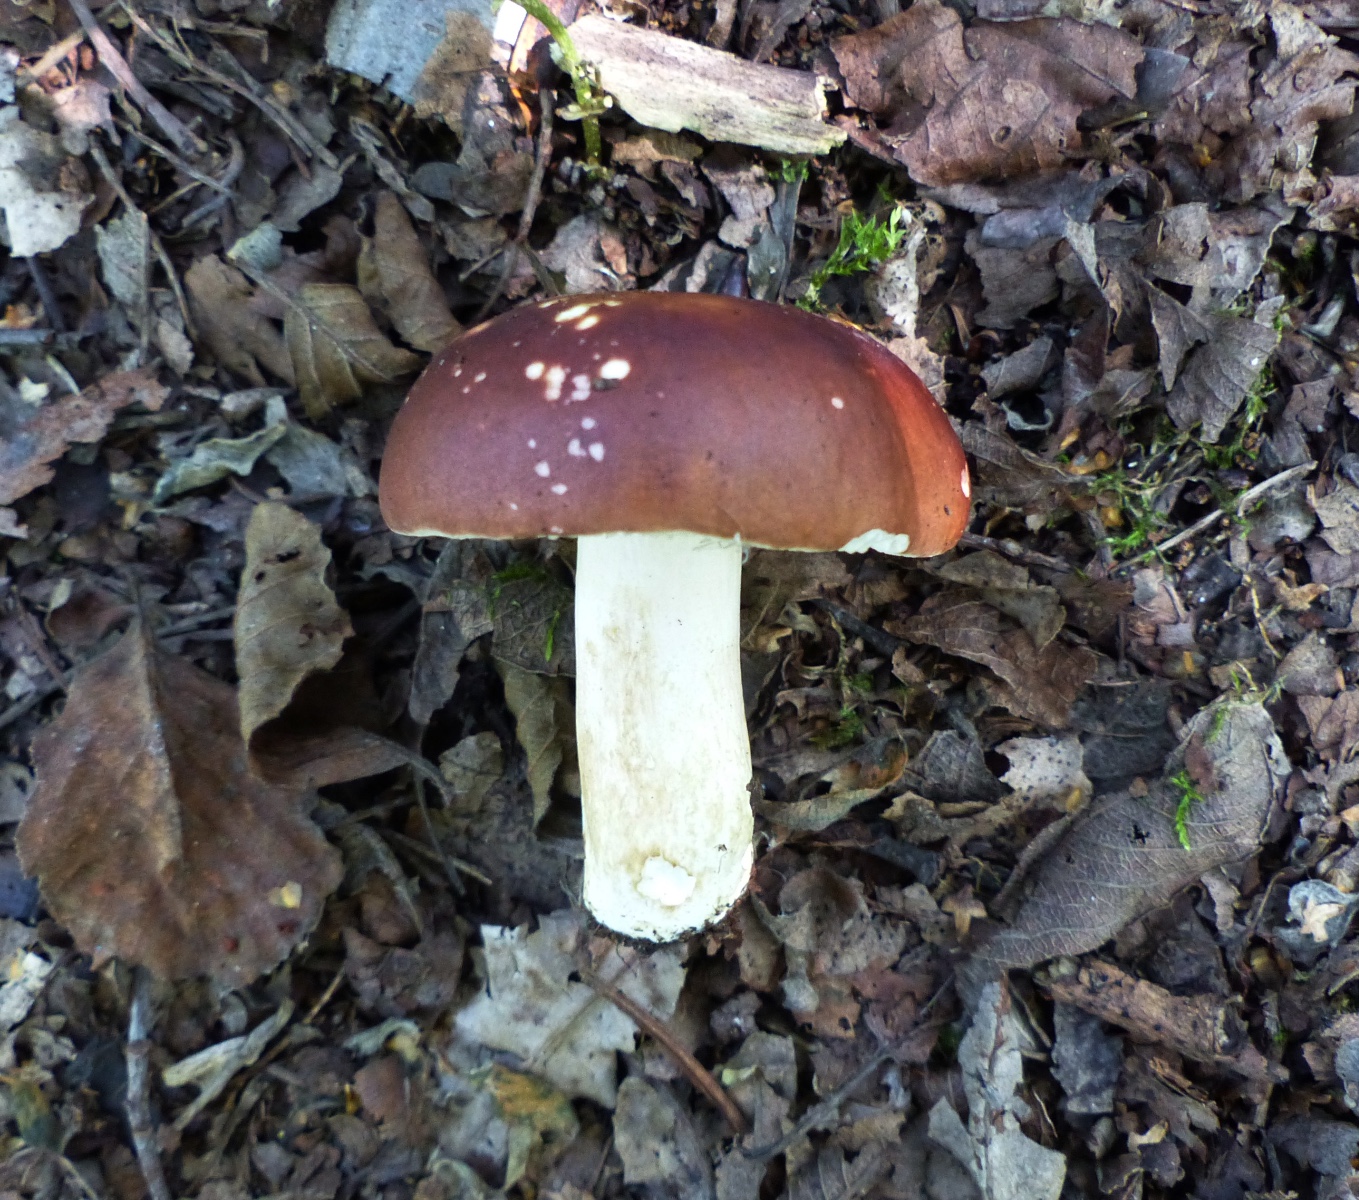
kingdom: Fungi
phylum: Basidiomycota
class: Agaricomycetes
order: Russulales
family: Russulaceae
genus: Russula
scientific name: Russula subrubens
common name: pile-skørhat
